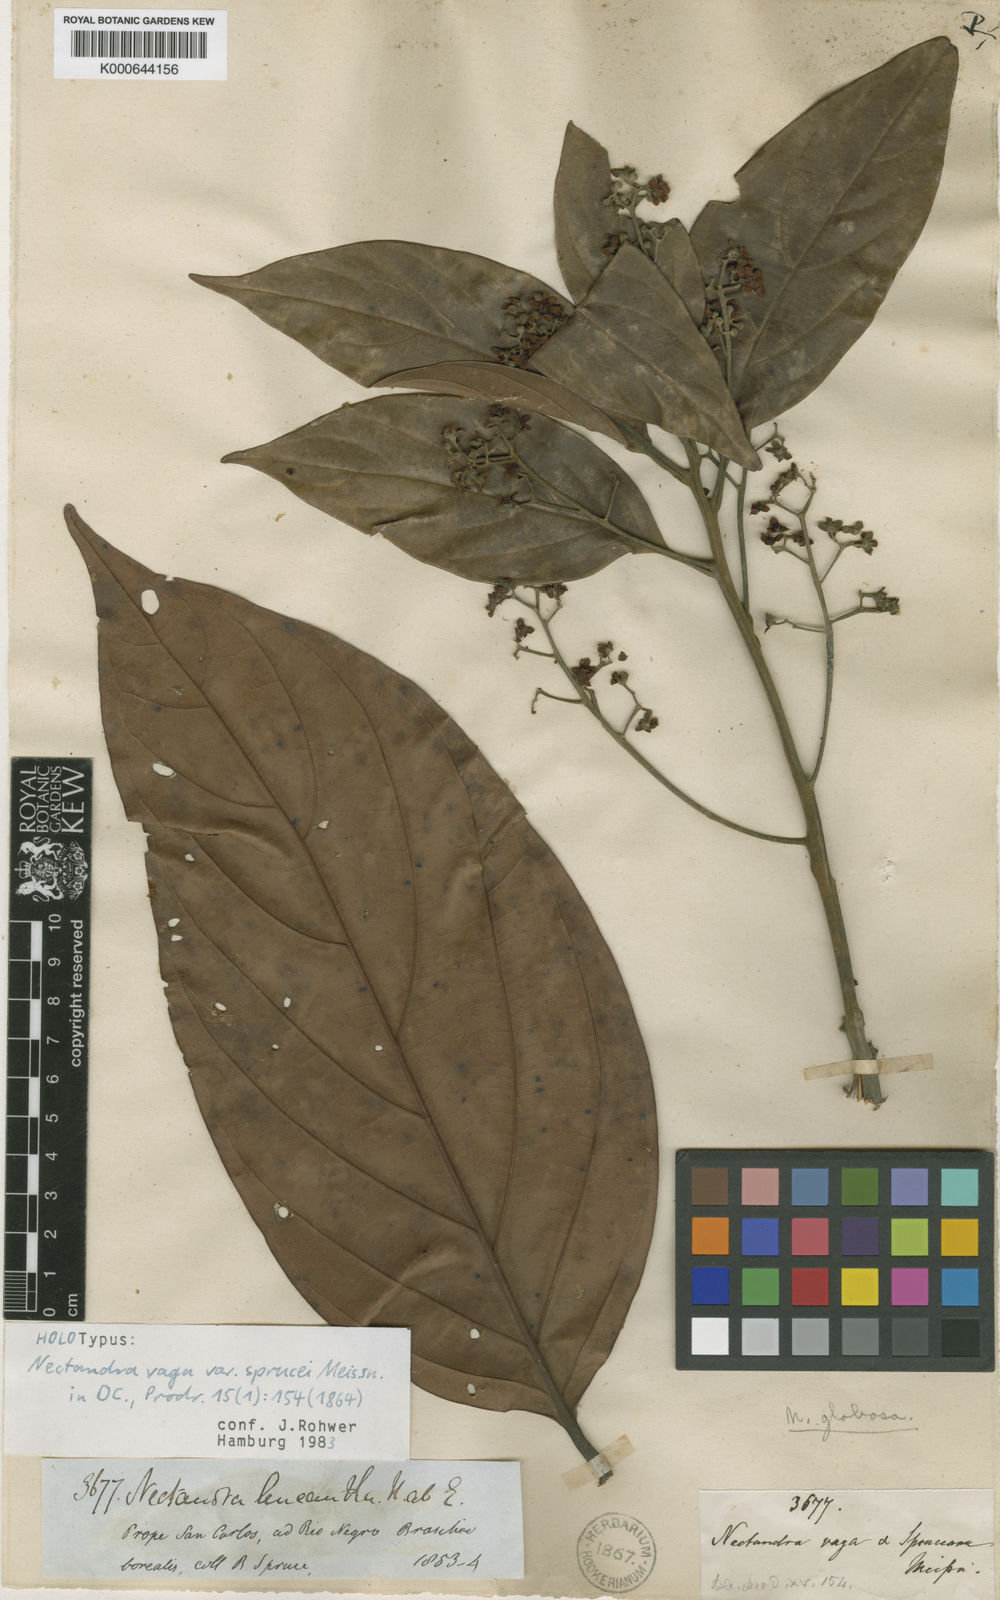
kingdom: Plantae
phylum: Tracheophyta
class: Magnoliopsida
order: Laurales
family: Lauraceae
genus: Nectandra
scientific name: Nectandra globosa
